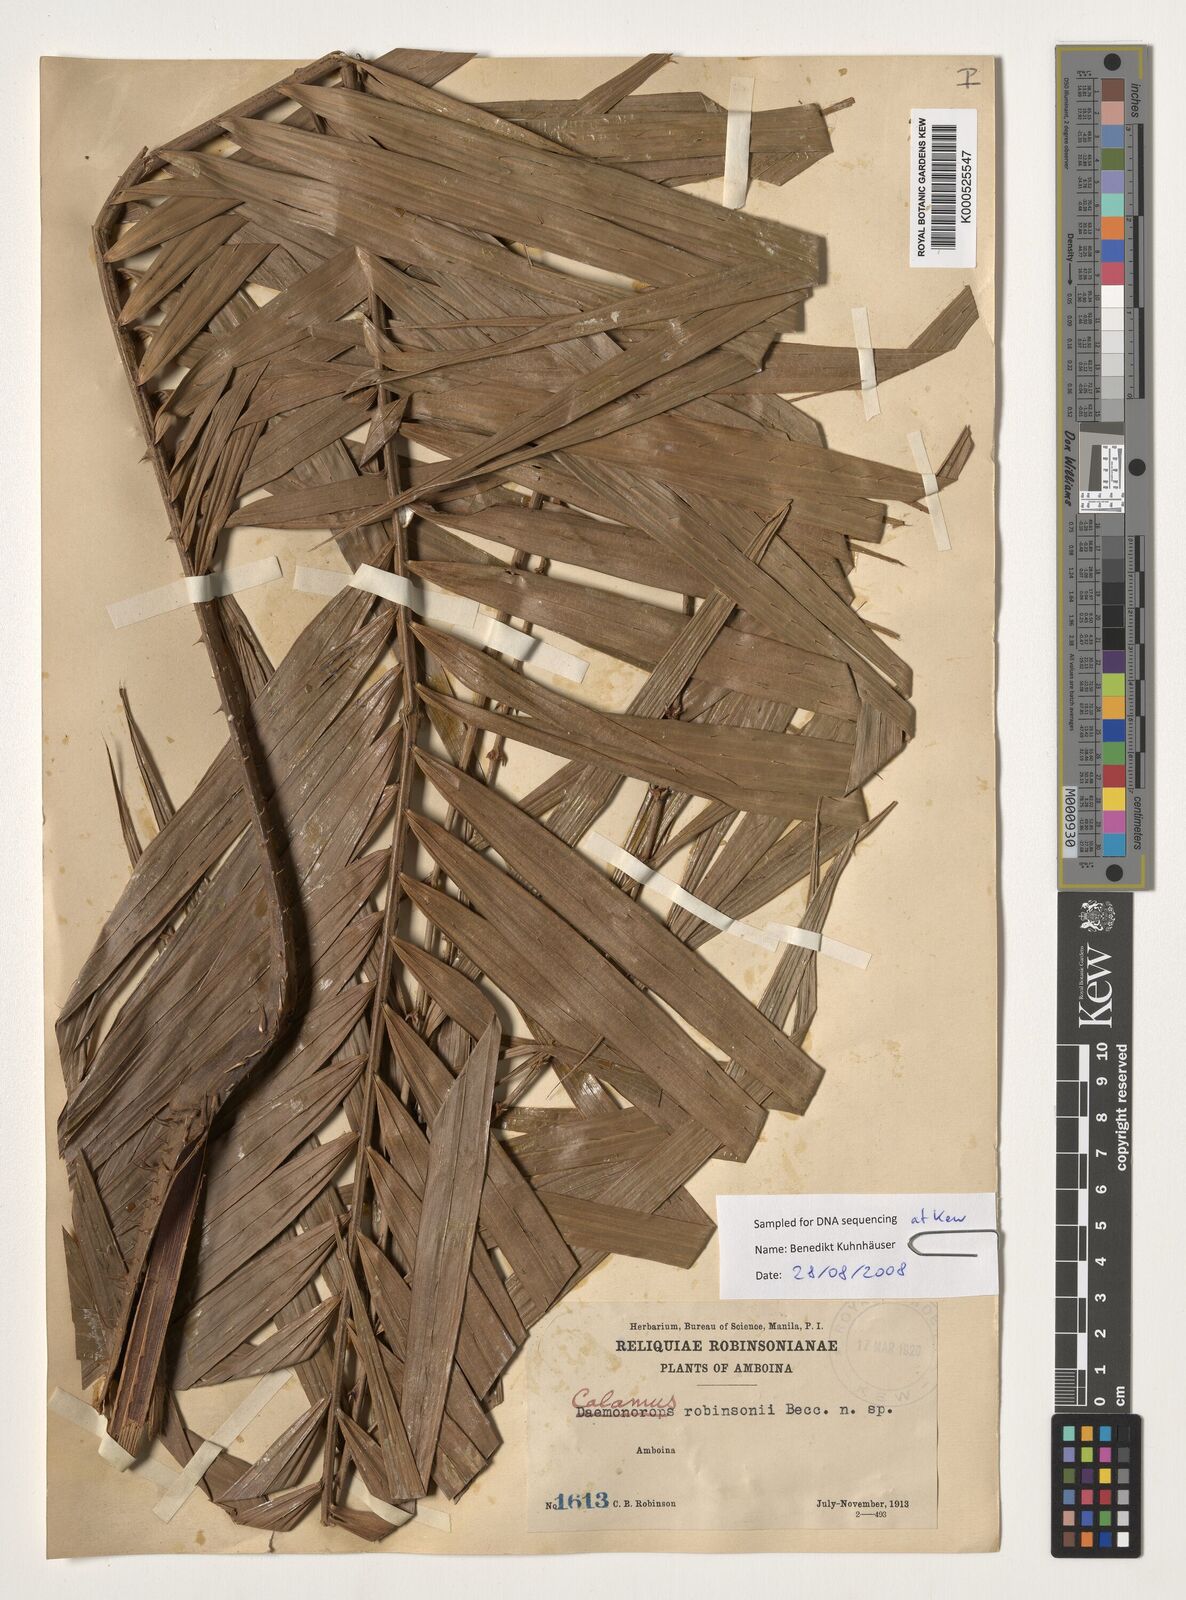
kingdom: Plantae
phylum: Tracheophyta
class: Liliopsida
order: Arecales
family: Arecaceae
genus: Calamus
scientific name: Calamus robinsonianus
